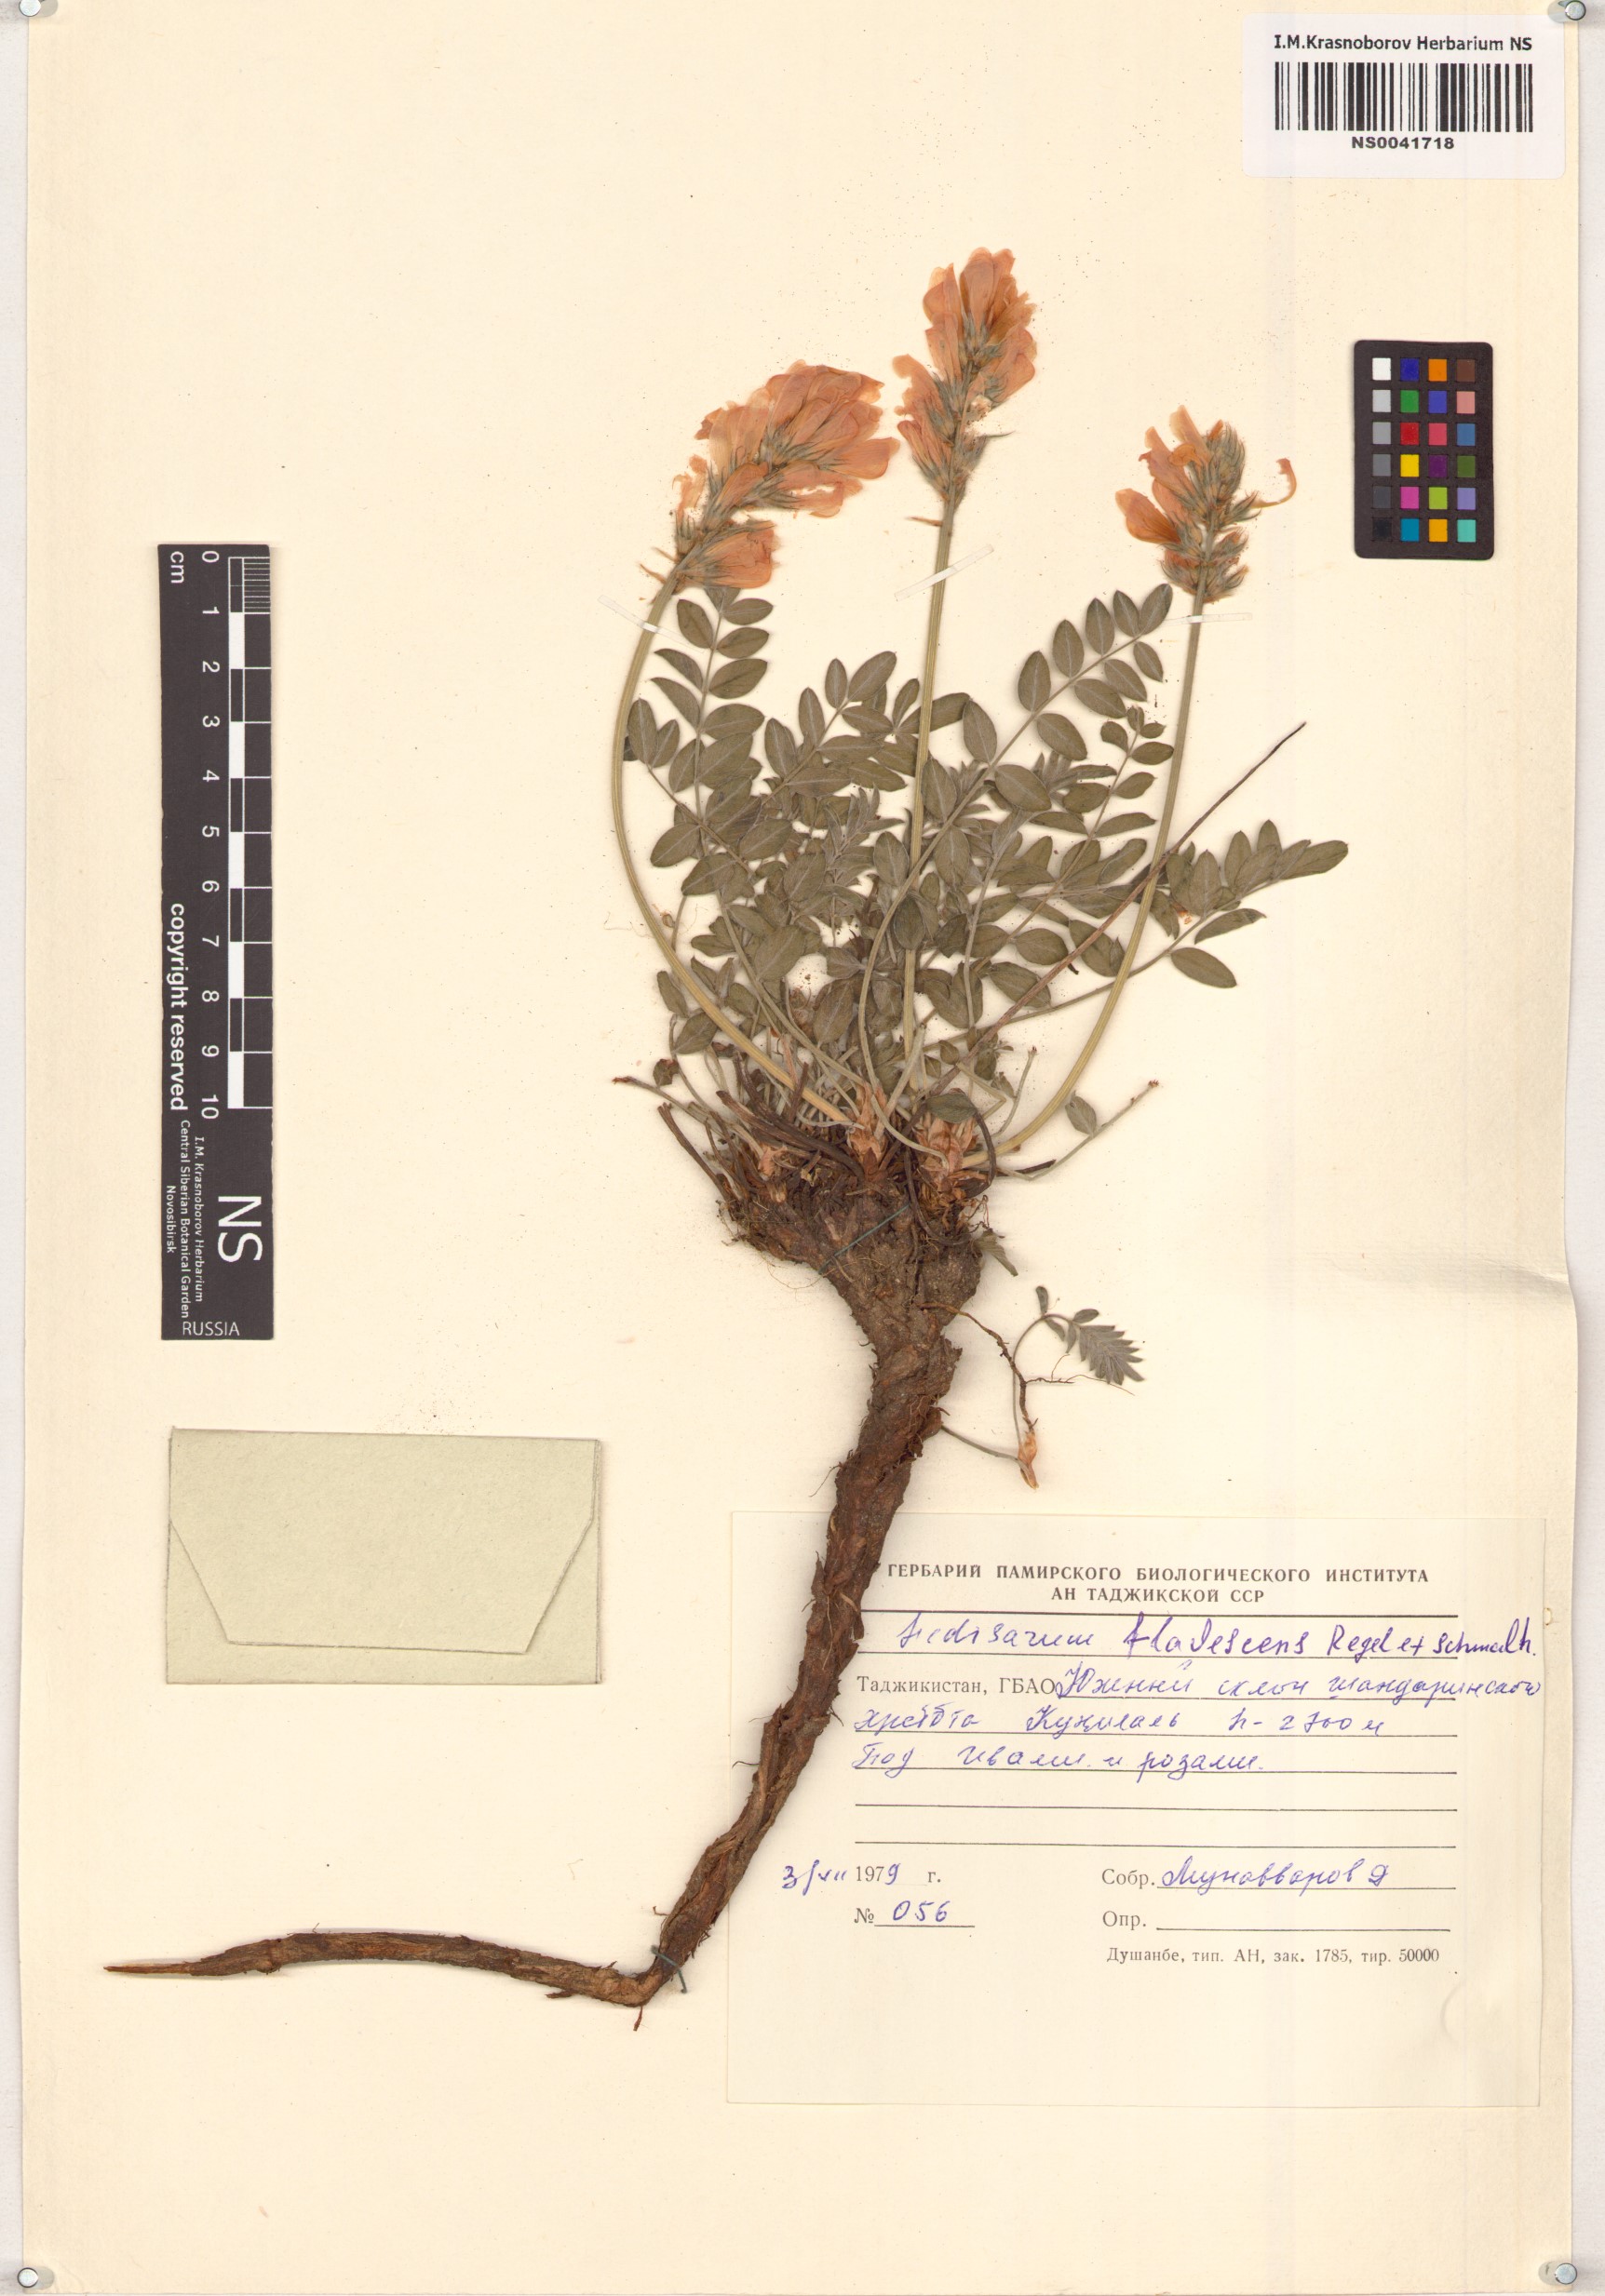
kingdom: Plantae
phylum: Tracheophyta
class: Magnoliopsida
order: Fabales
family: Fabaceae
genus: Hedysarum
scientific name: Hedysarum flavescens
